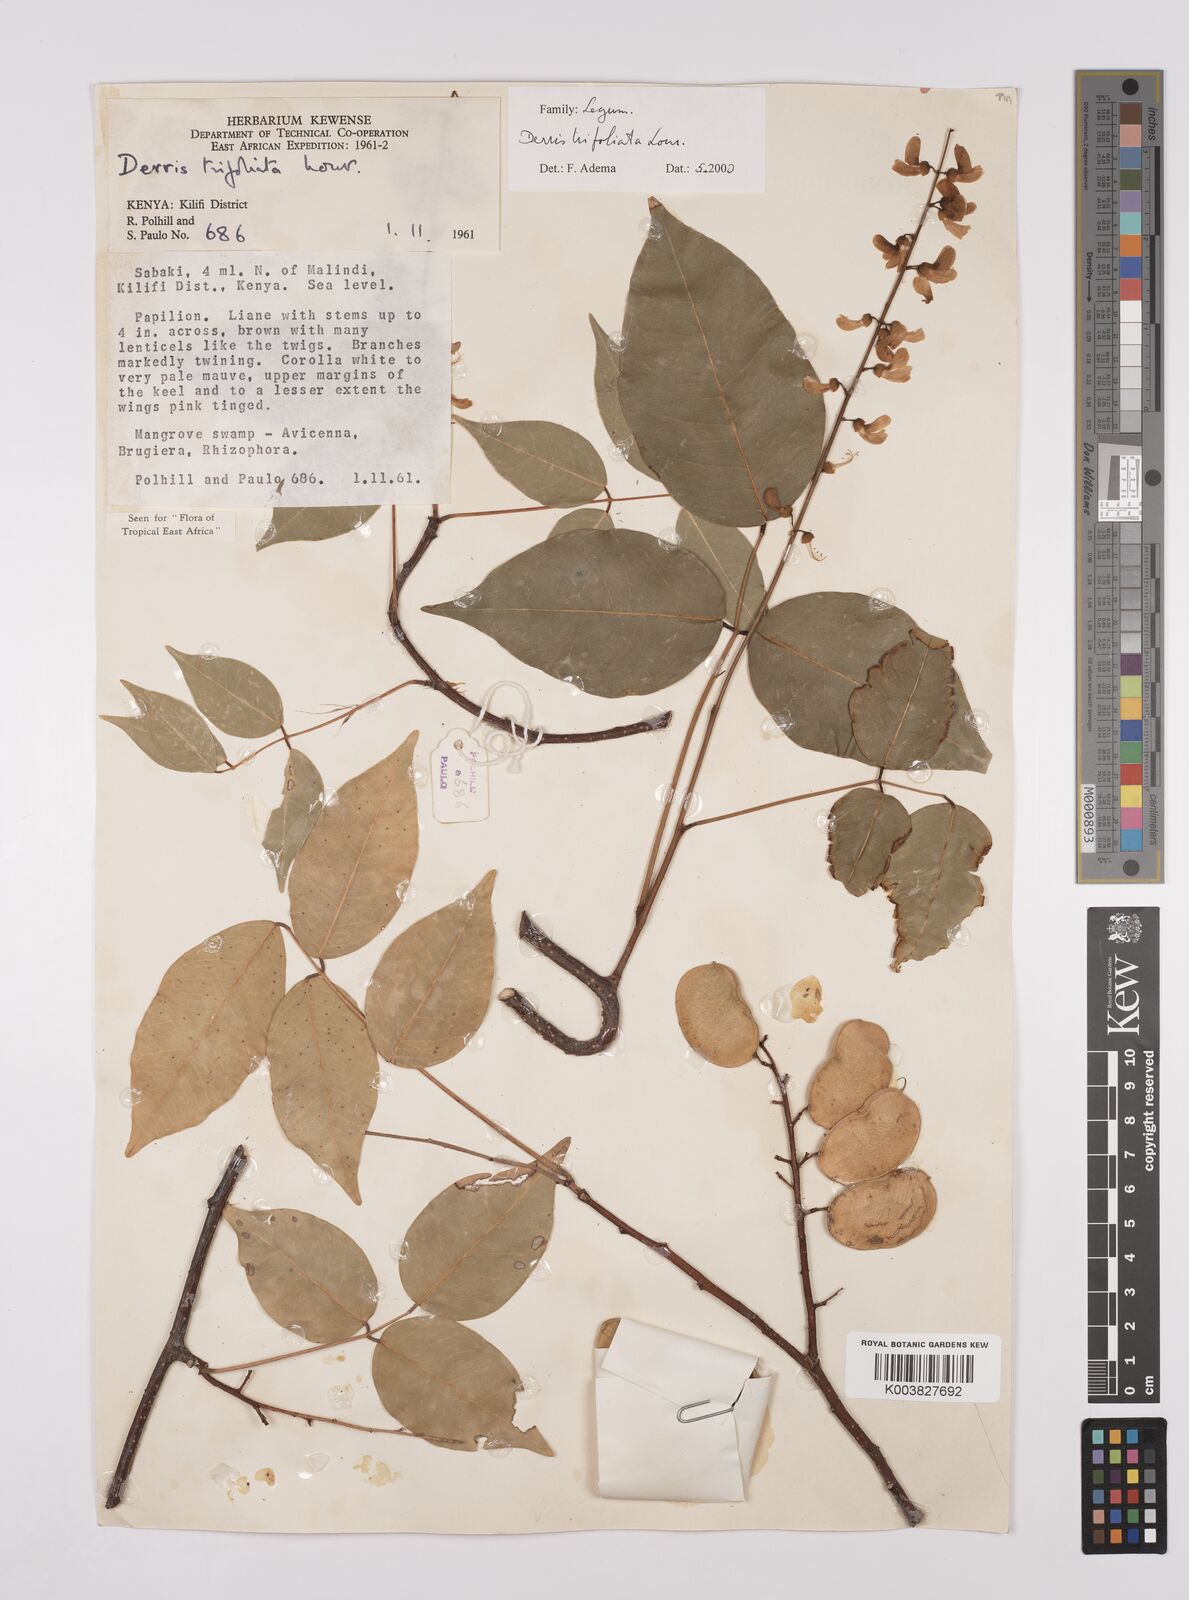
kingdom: Plantae
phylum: Tracheophyta
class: Magnoliopsida
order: Fabales
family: Fabaceae
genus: Derris
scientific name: Derris trifoliata
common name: Three-leaf derris
